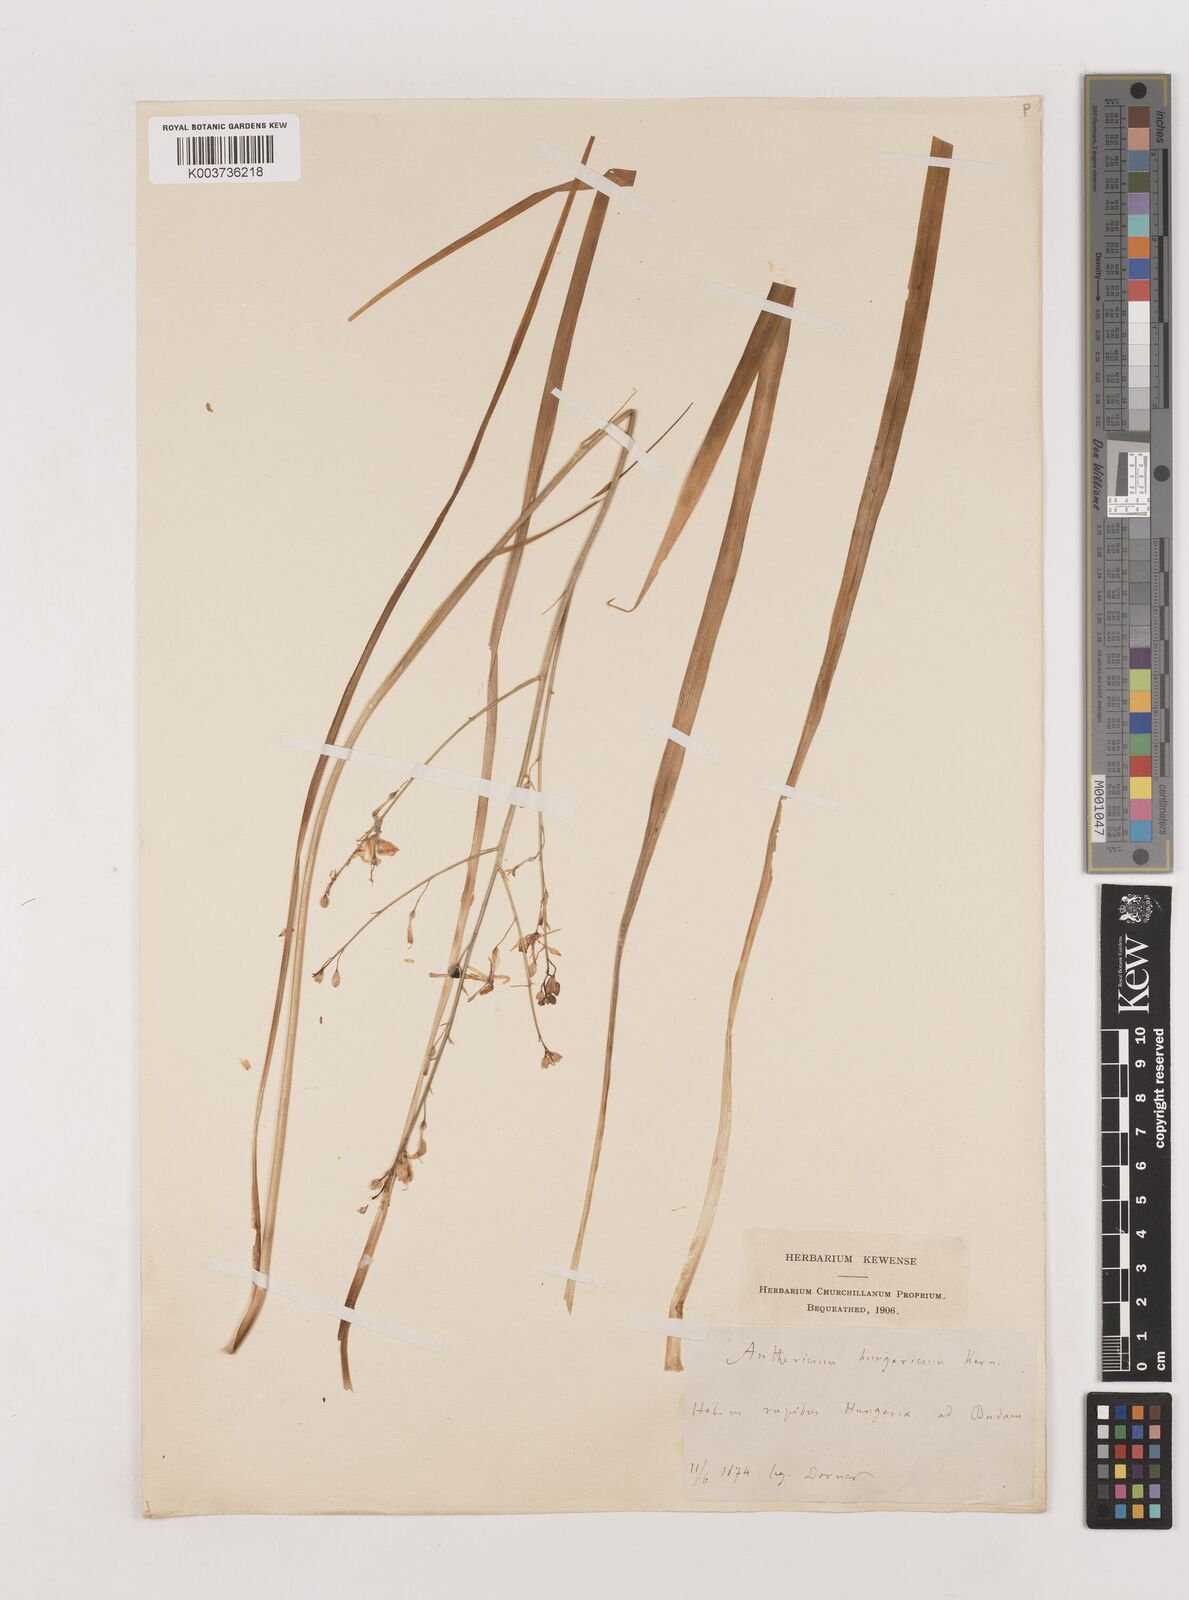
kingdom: Plantae
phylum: Tracheophyta
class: Liliopsida
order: Asparagales
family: Asparagaceae
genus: Anthericum
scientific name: Anthericum
